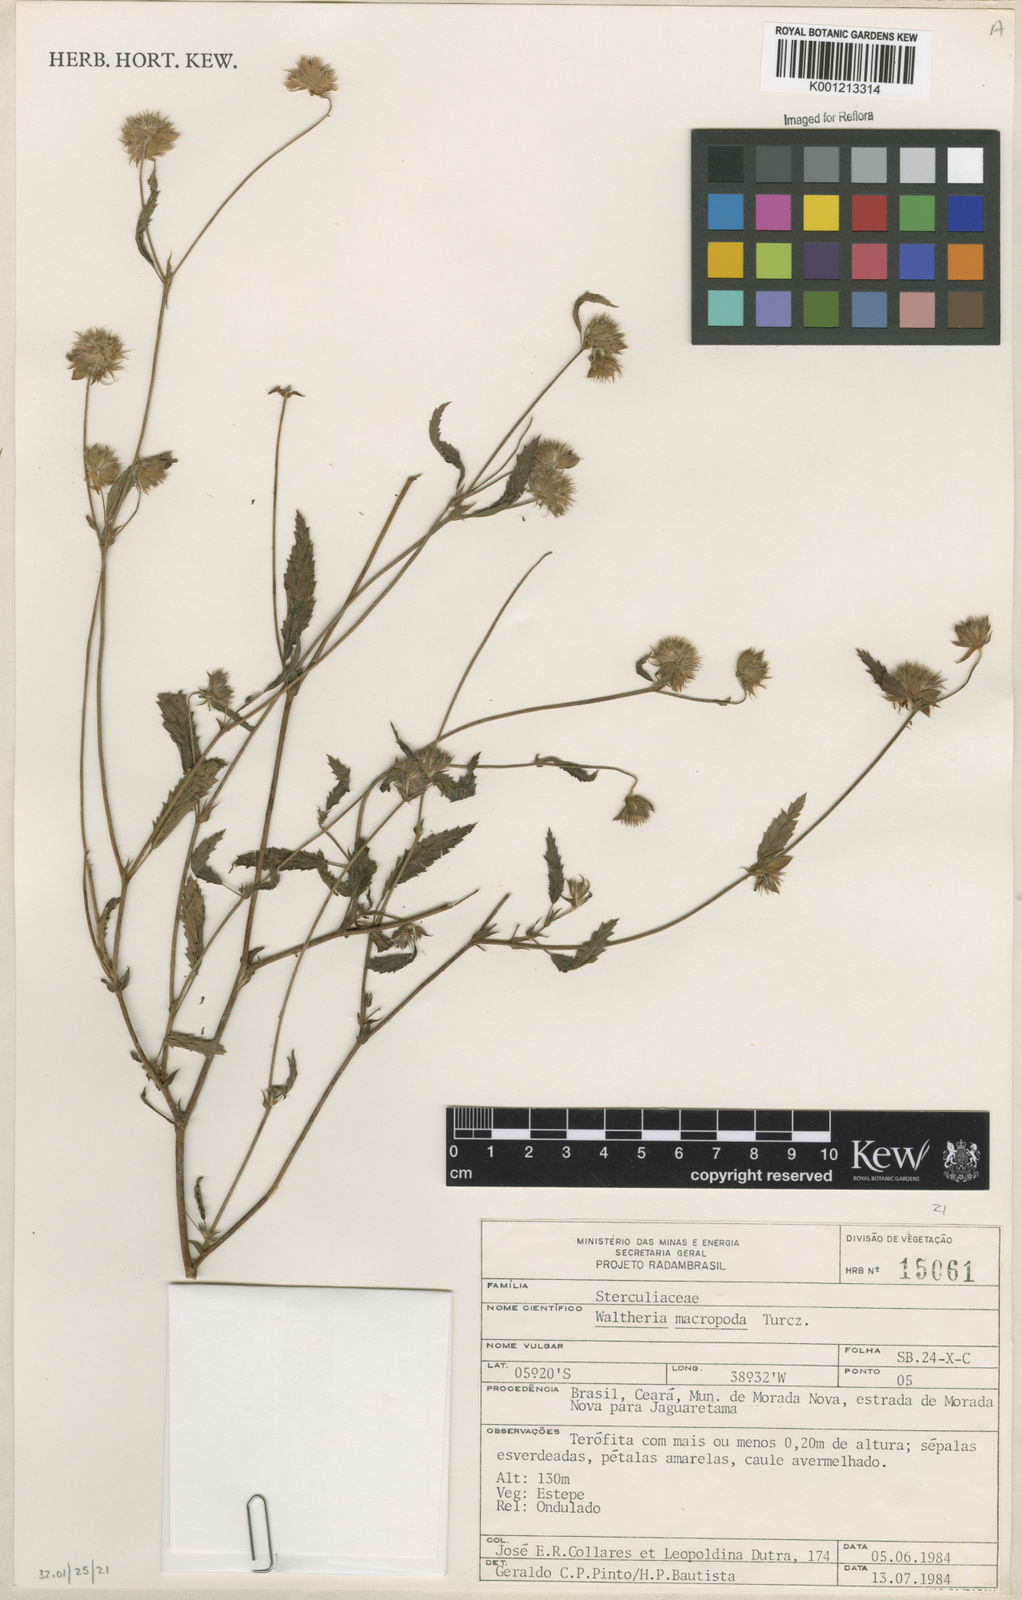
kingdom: Plantae
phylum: Tracheophyta
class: Magnoliopsida
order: Malvales
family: Malvaceae
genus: Waltheria
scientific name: Waltheria bracteosa
